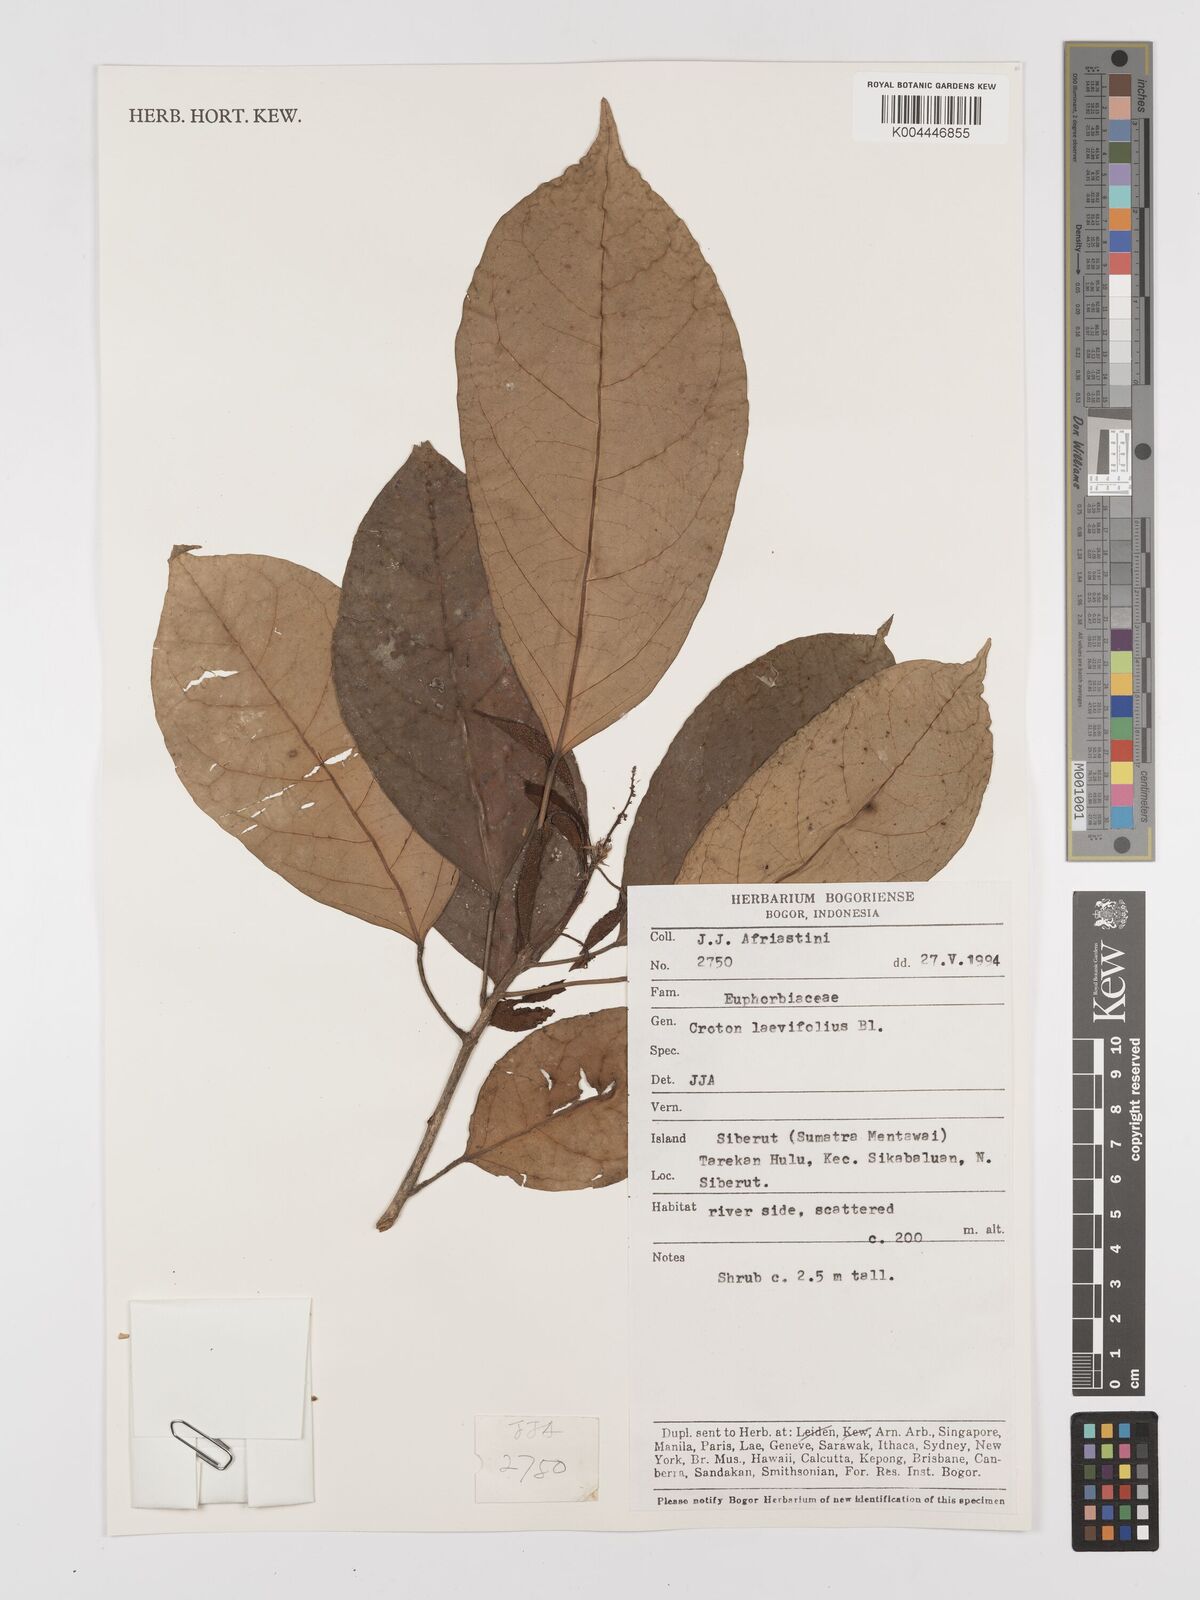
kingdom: Plantae
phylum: Tracheophyta
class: Magnoliopsida
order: Malpighiales
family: Euphorbiaceae
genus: Croton
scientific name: Croton oblongus
